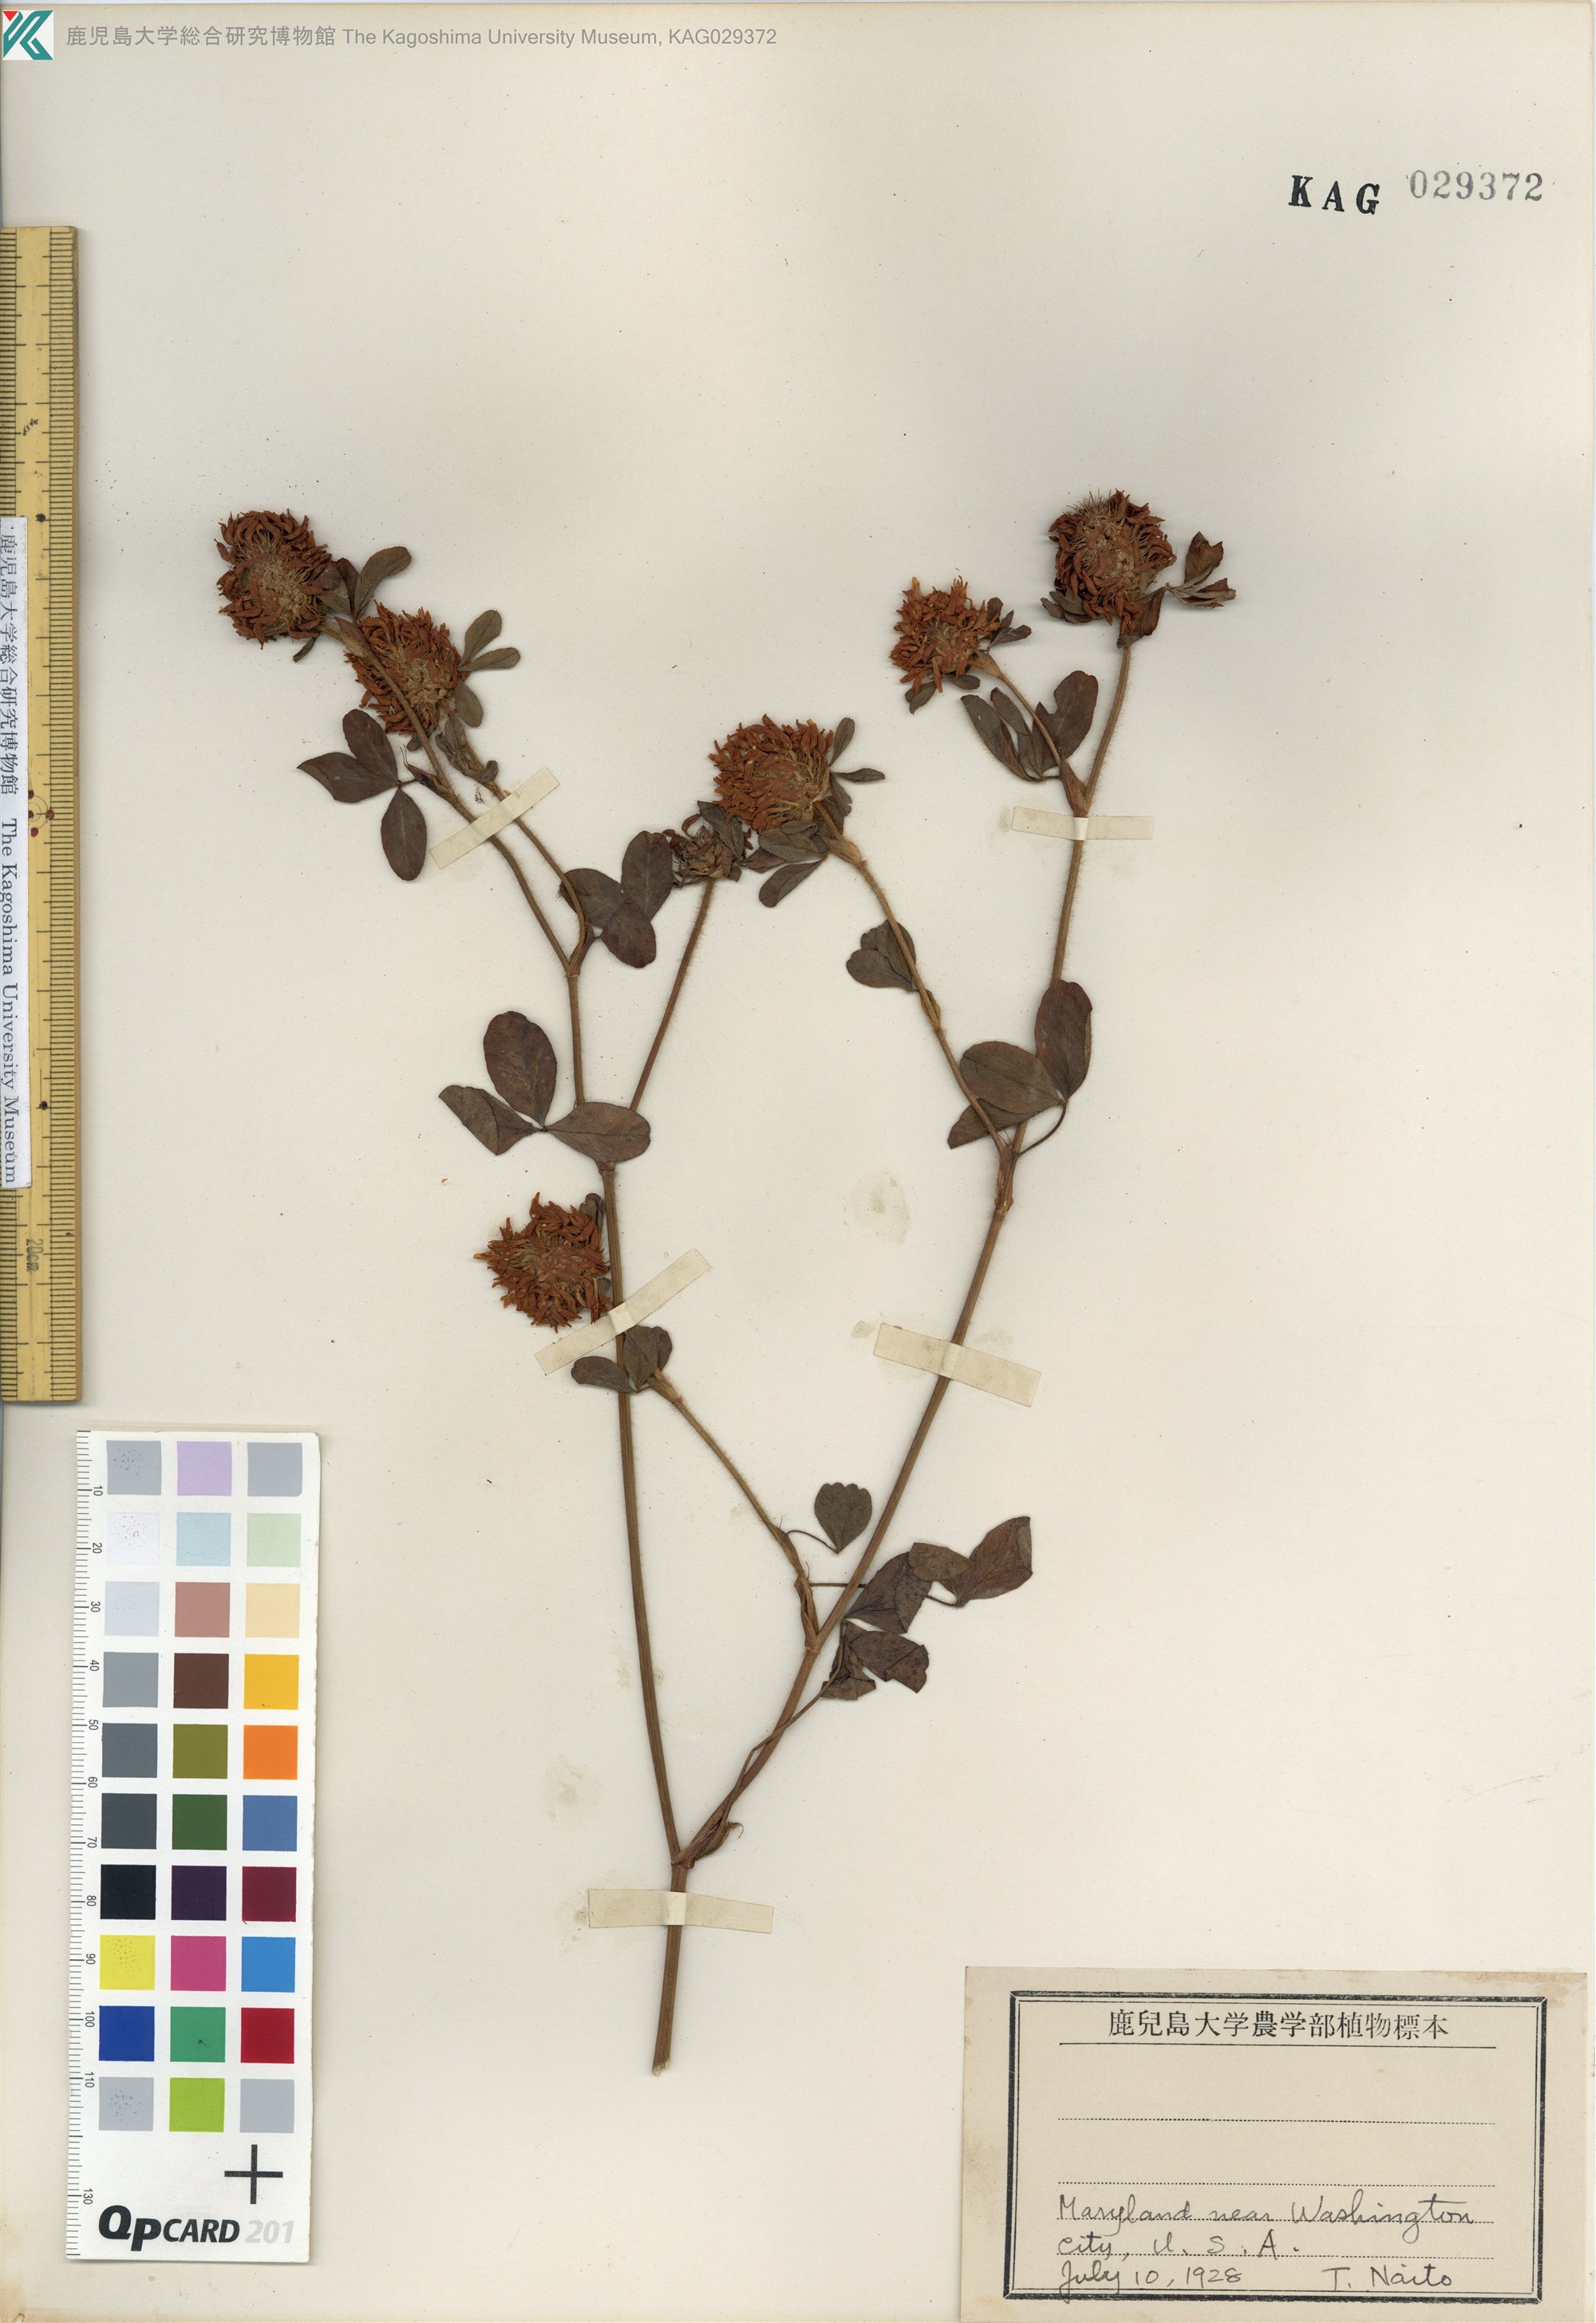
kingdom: Plantae
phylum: Tracheophyta
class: Magnoliopsida
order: Fabales
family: Fabaceae
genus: Trifolium
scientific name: Trifolium pratense
